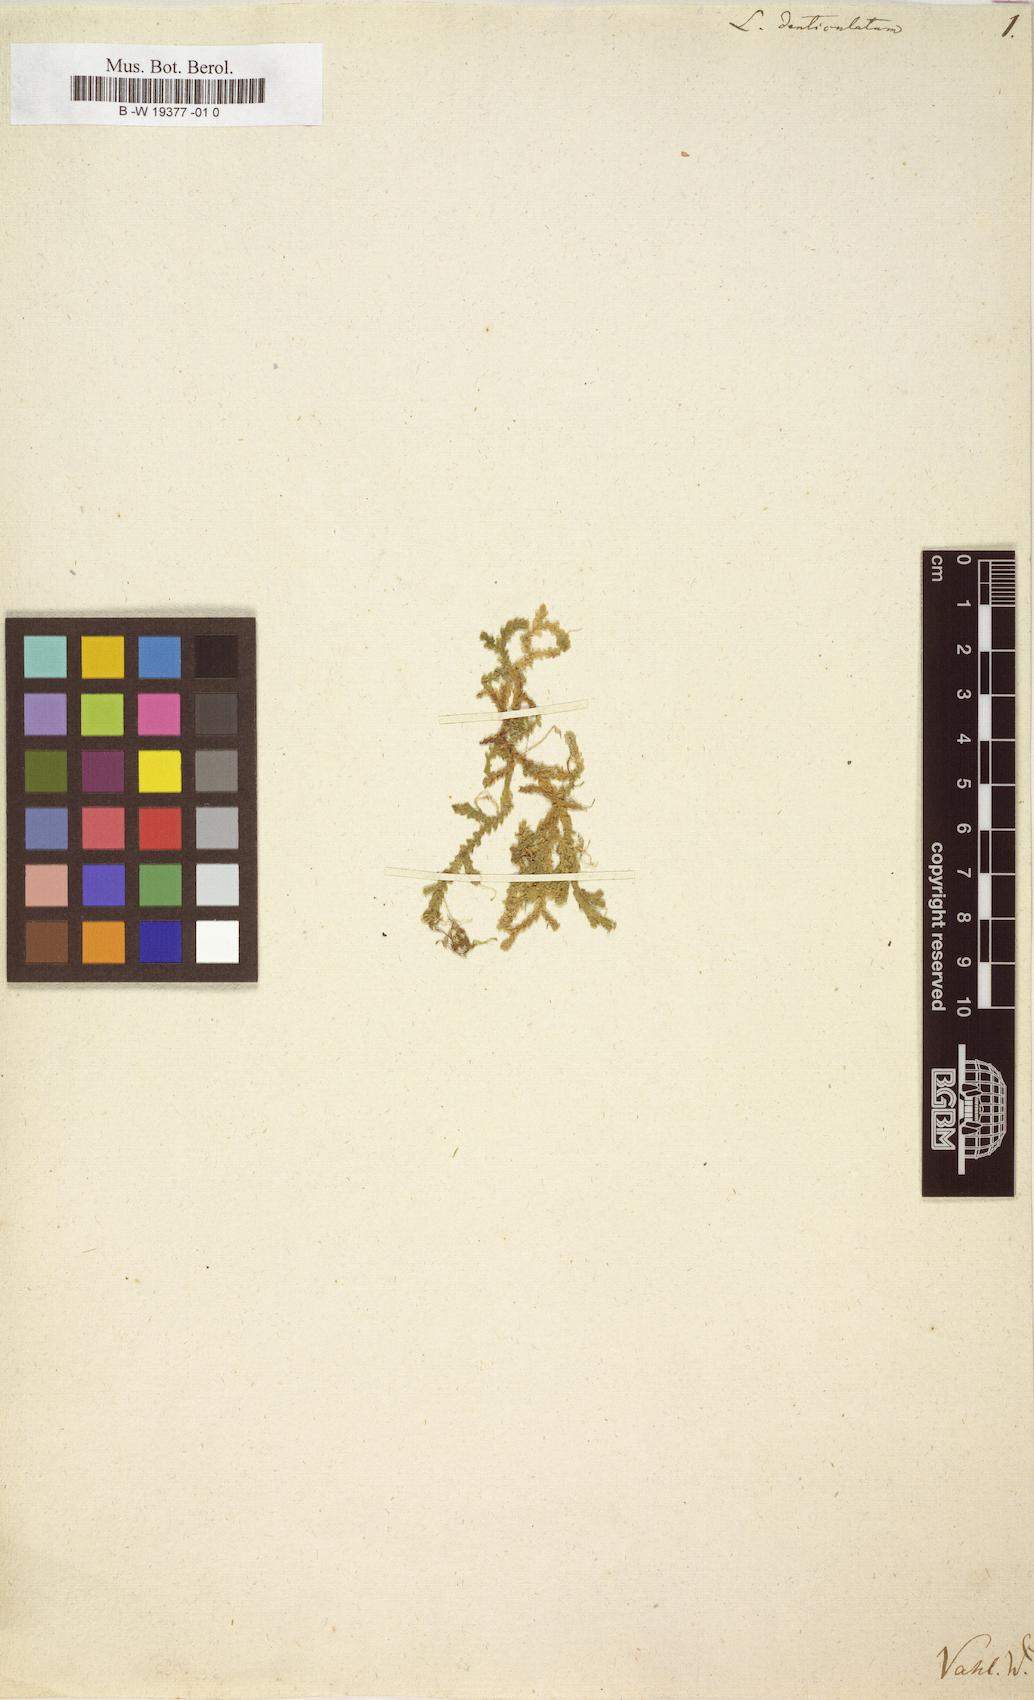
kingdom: Plantae
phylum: Tracheophyta
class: Lycopodiopsida
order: Selaginellales
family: Selaginellaceae
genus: Selaginella
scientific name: Selaginella denticulata
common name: Toothed-leaved clubmoss
